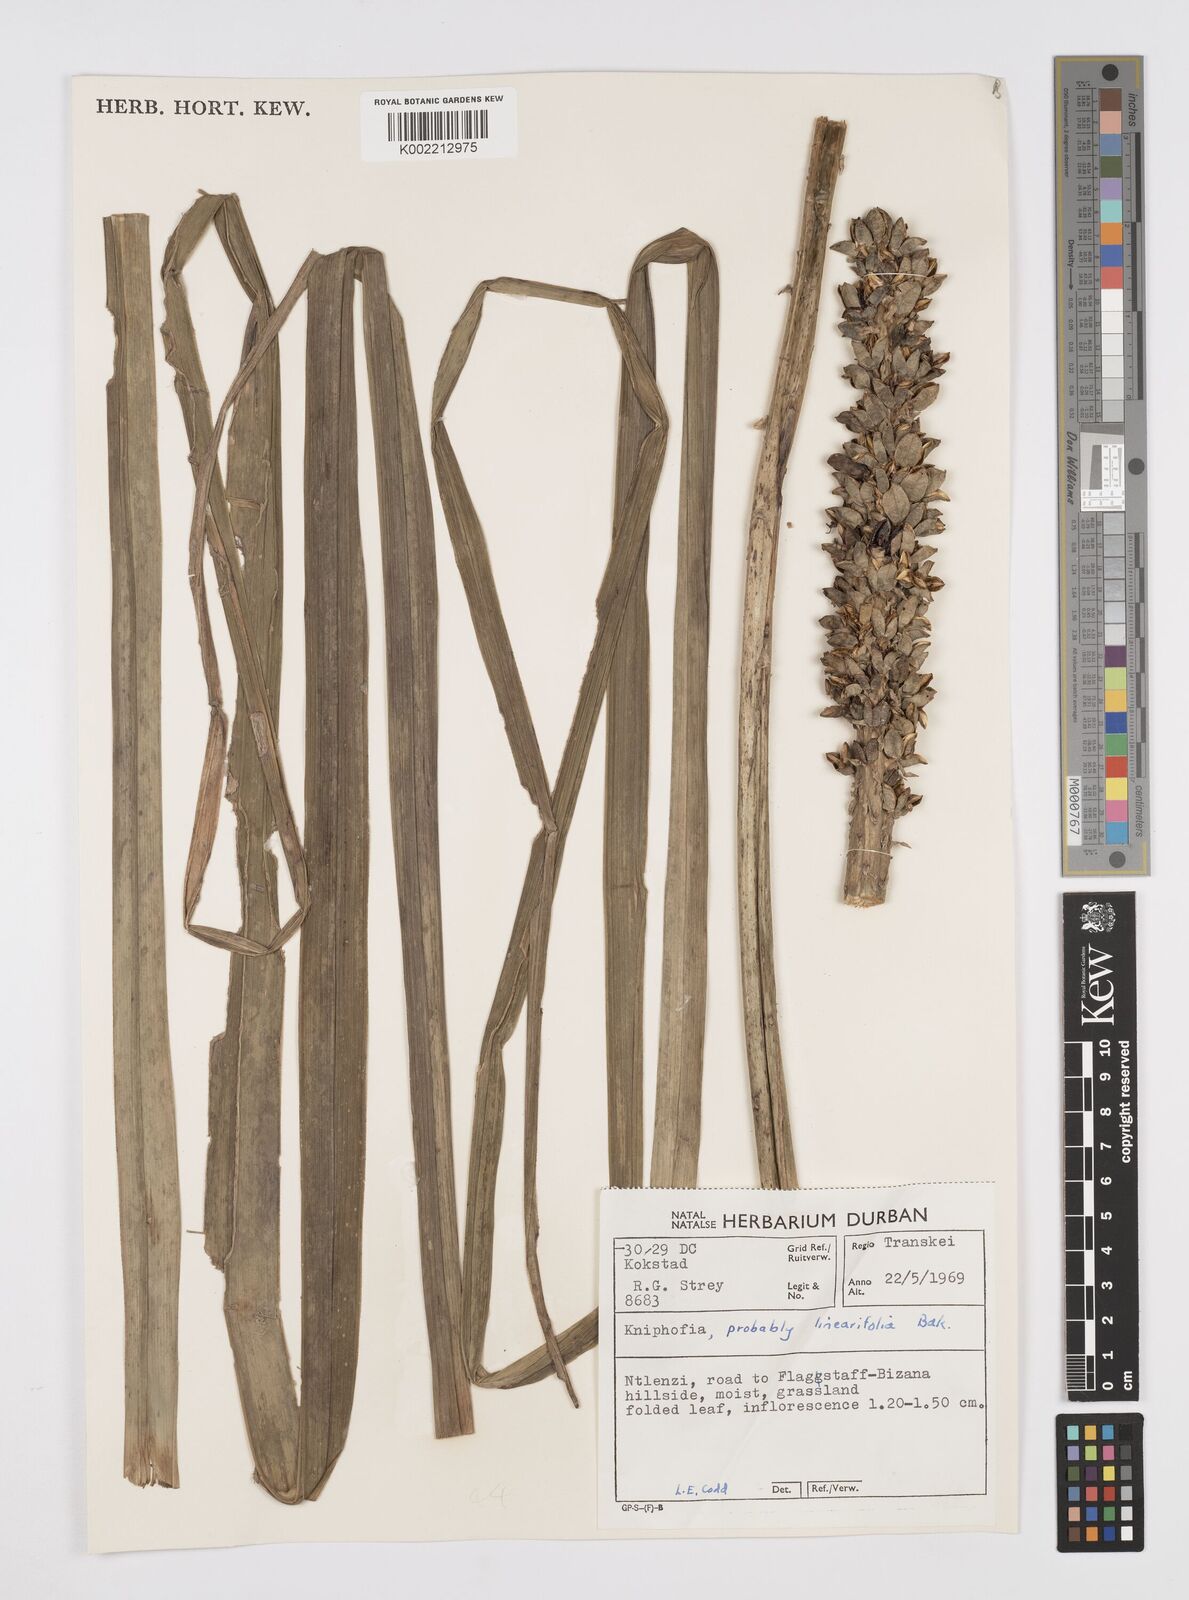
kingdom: Plantae
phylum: Tracheophyta
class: Liliopsida
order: Asparagales
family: Asphodelaceae
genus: Kniphofia
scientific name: Kniphofia linearifolia
